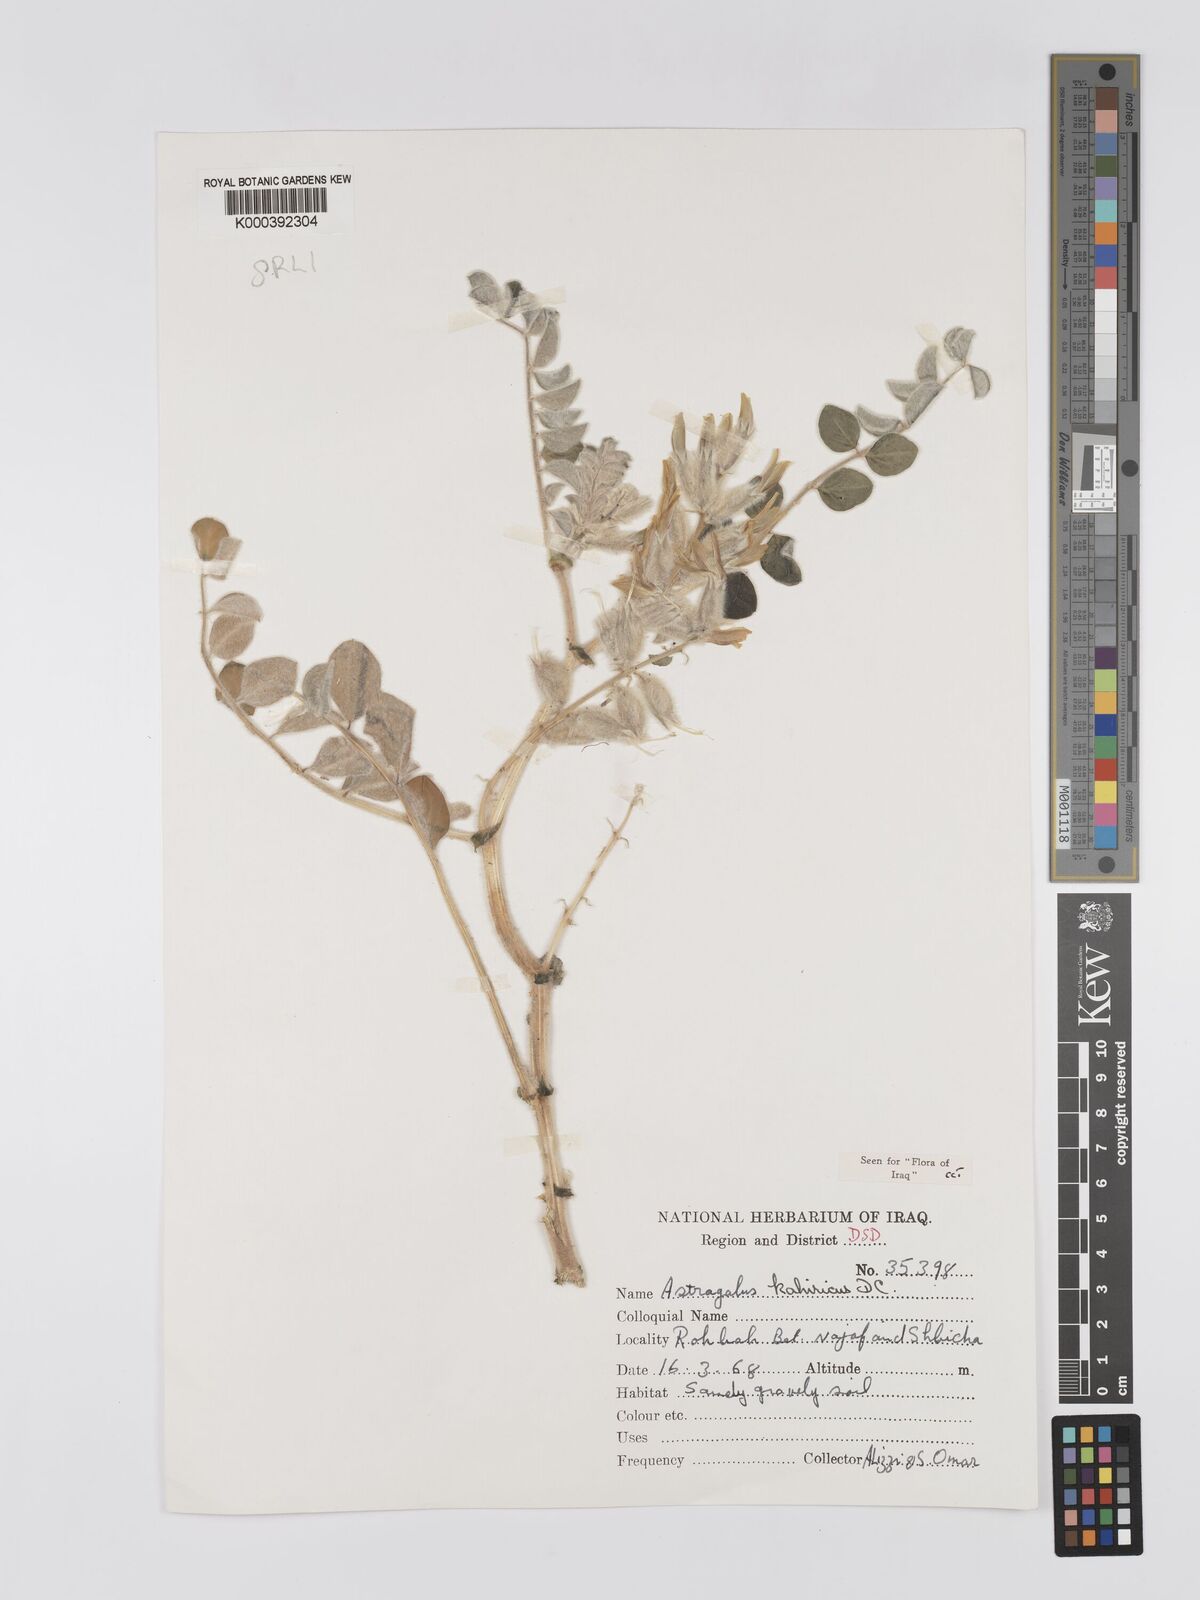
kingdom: Plantae
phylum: Tracheophyta
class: Magnoliopsida
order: Fabales
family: Fabaceae
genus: Astragalus
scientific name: Astragalus kahiricus
